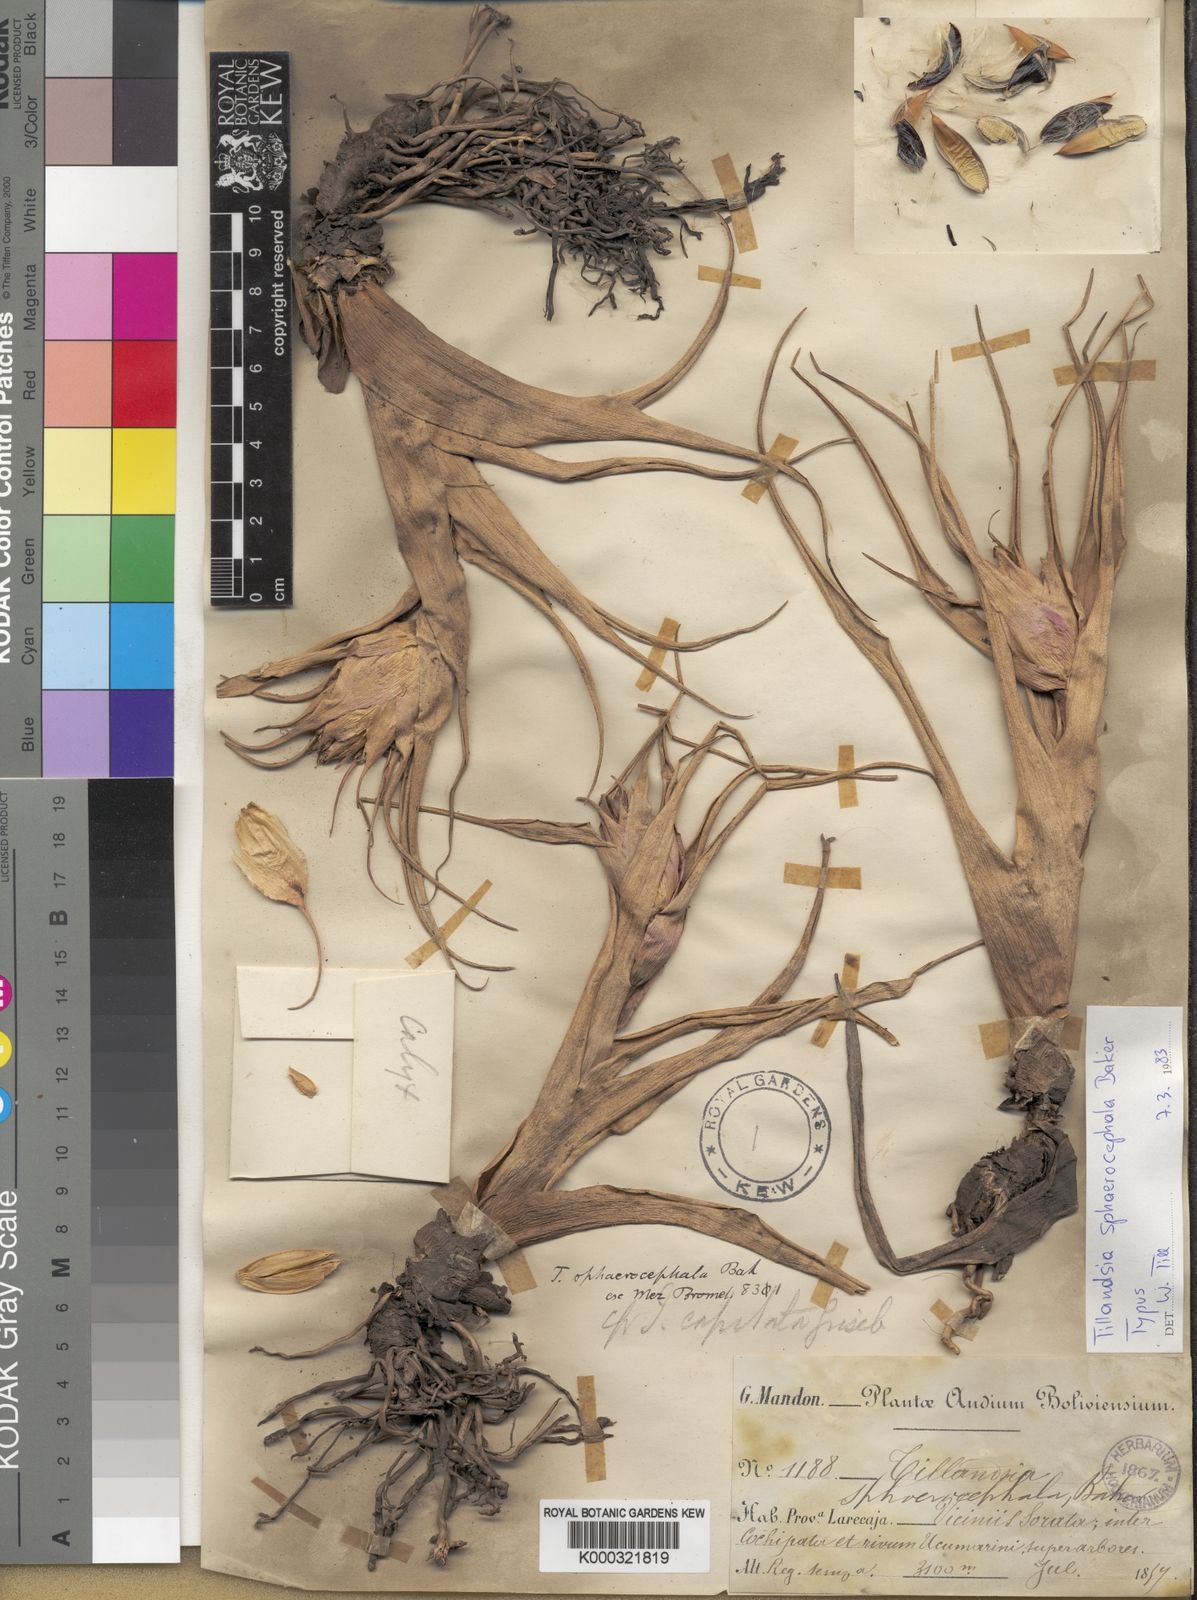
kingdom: Plantae
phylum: Tracheophyta
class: Liliopsida
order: Poales
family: Bromeliaceae
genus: Tillandsia
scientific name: Tillandsia sphaerocephala
